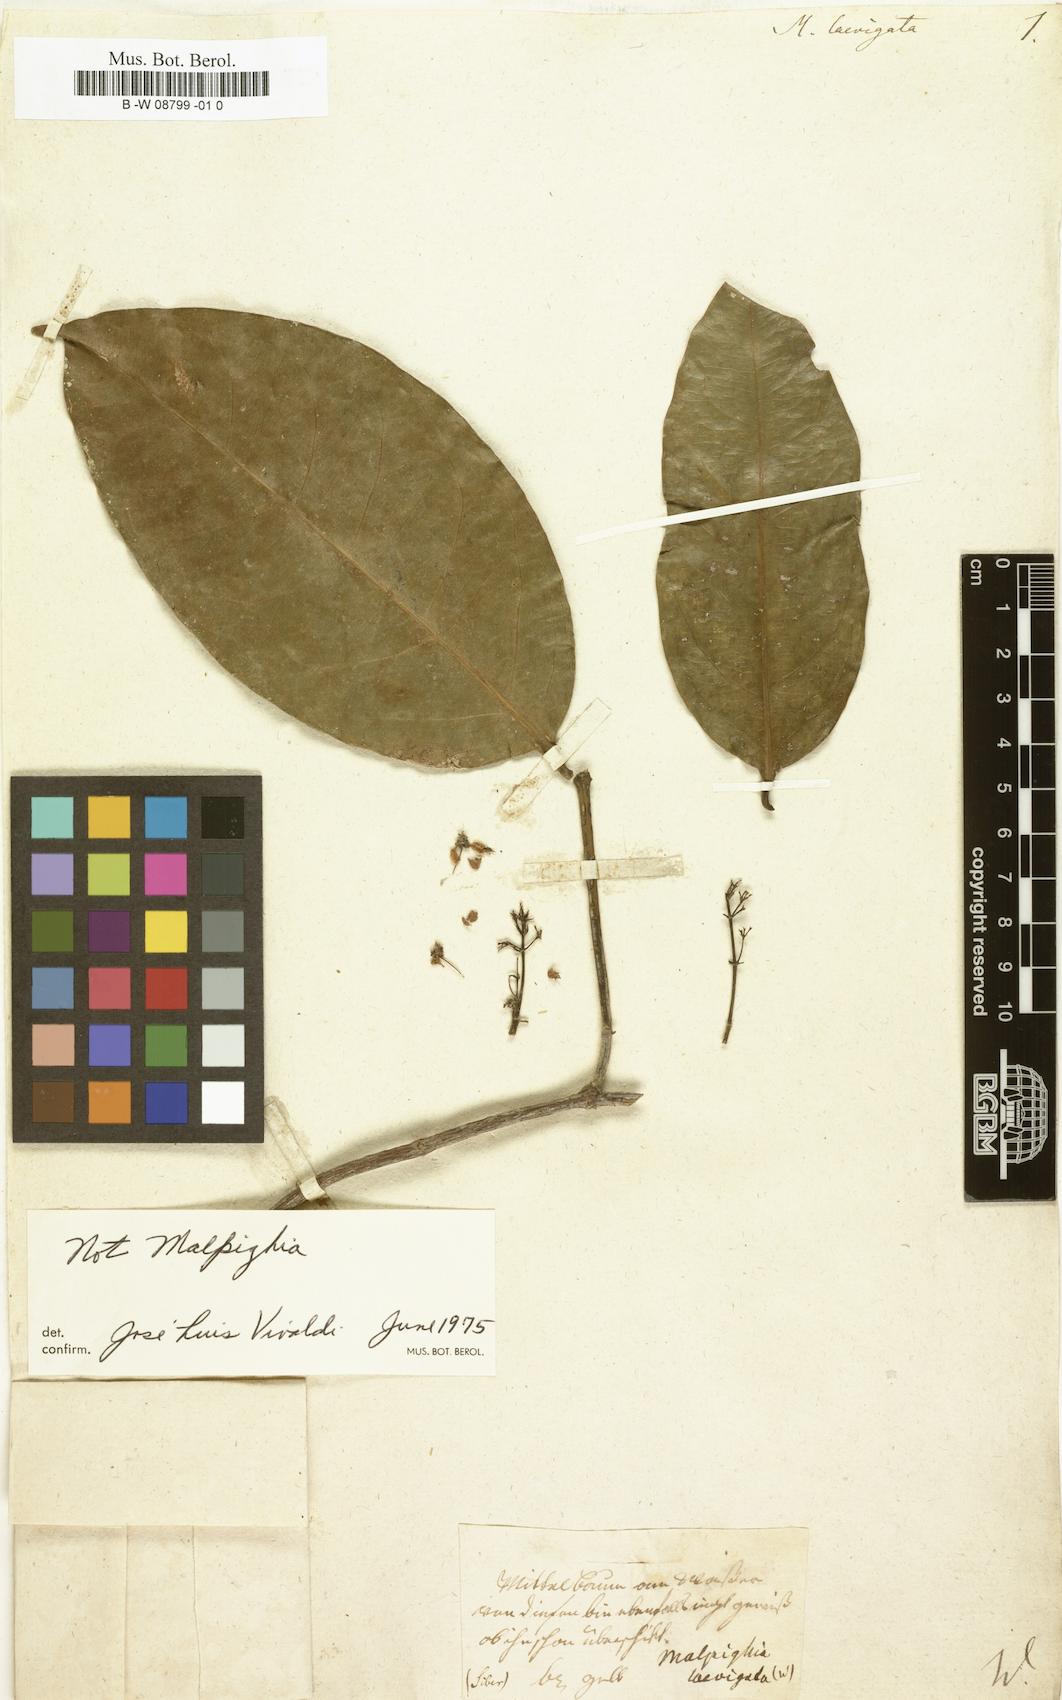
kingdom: Plantae
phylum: Tracheophyta
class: Magnoliopsida
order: Malpighiales
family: Malpighiaceae
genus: Byrsonima
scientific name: Byrsonima laevigata
